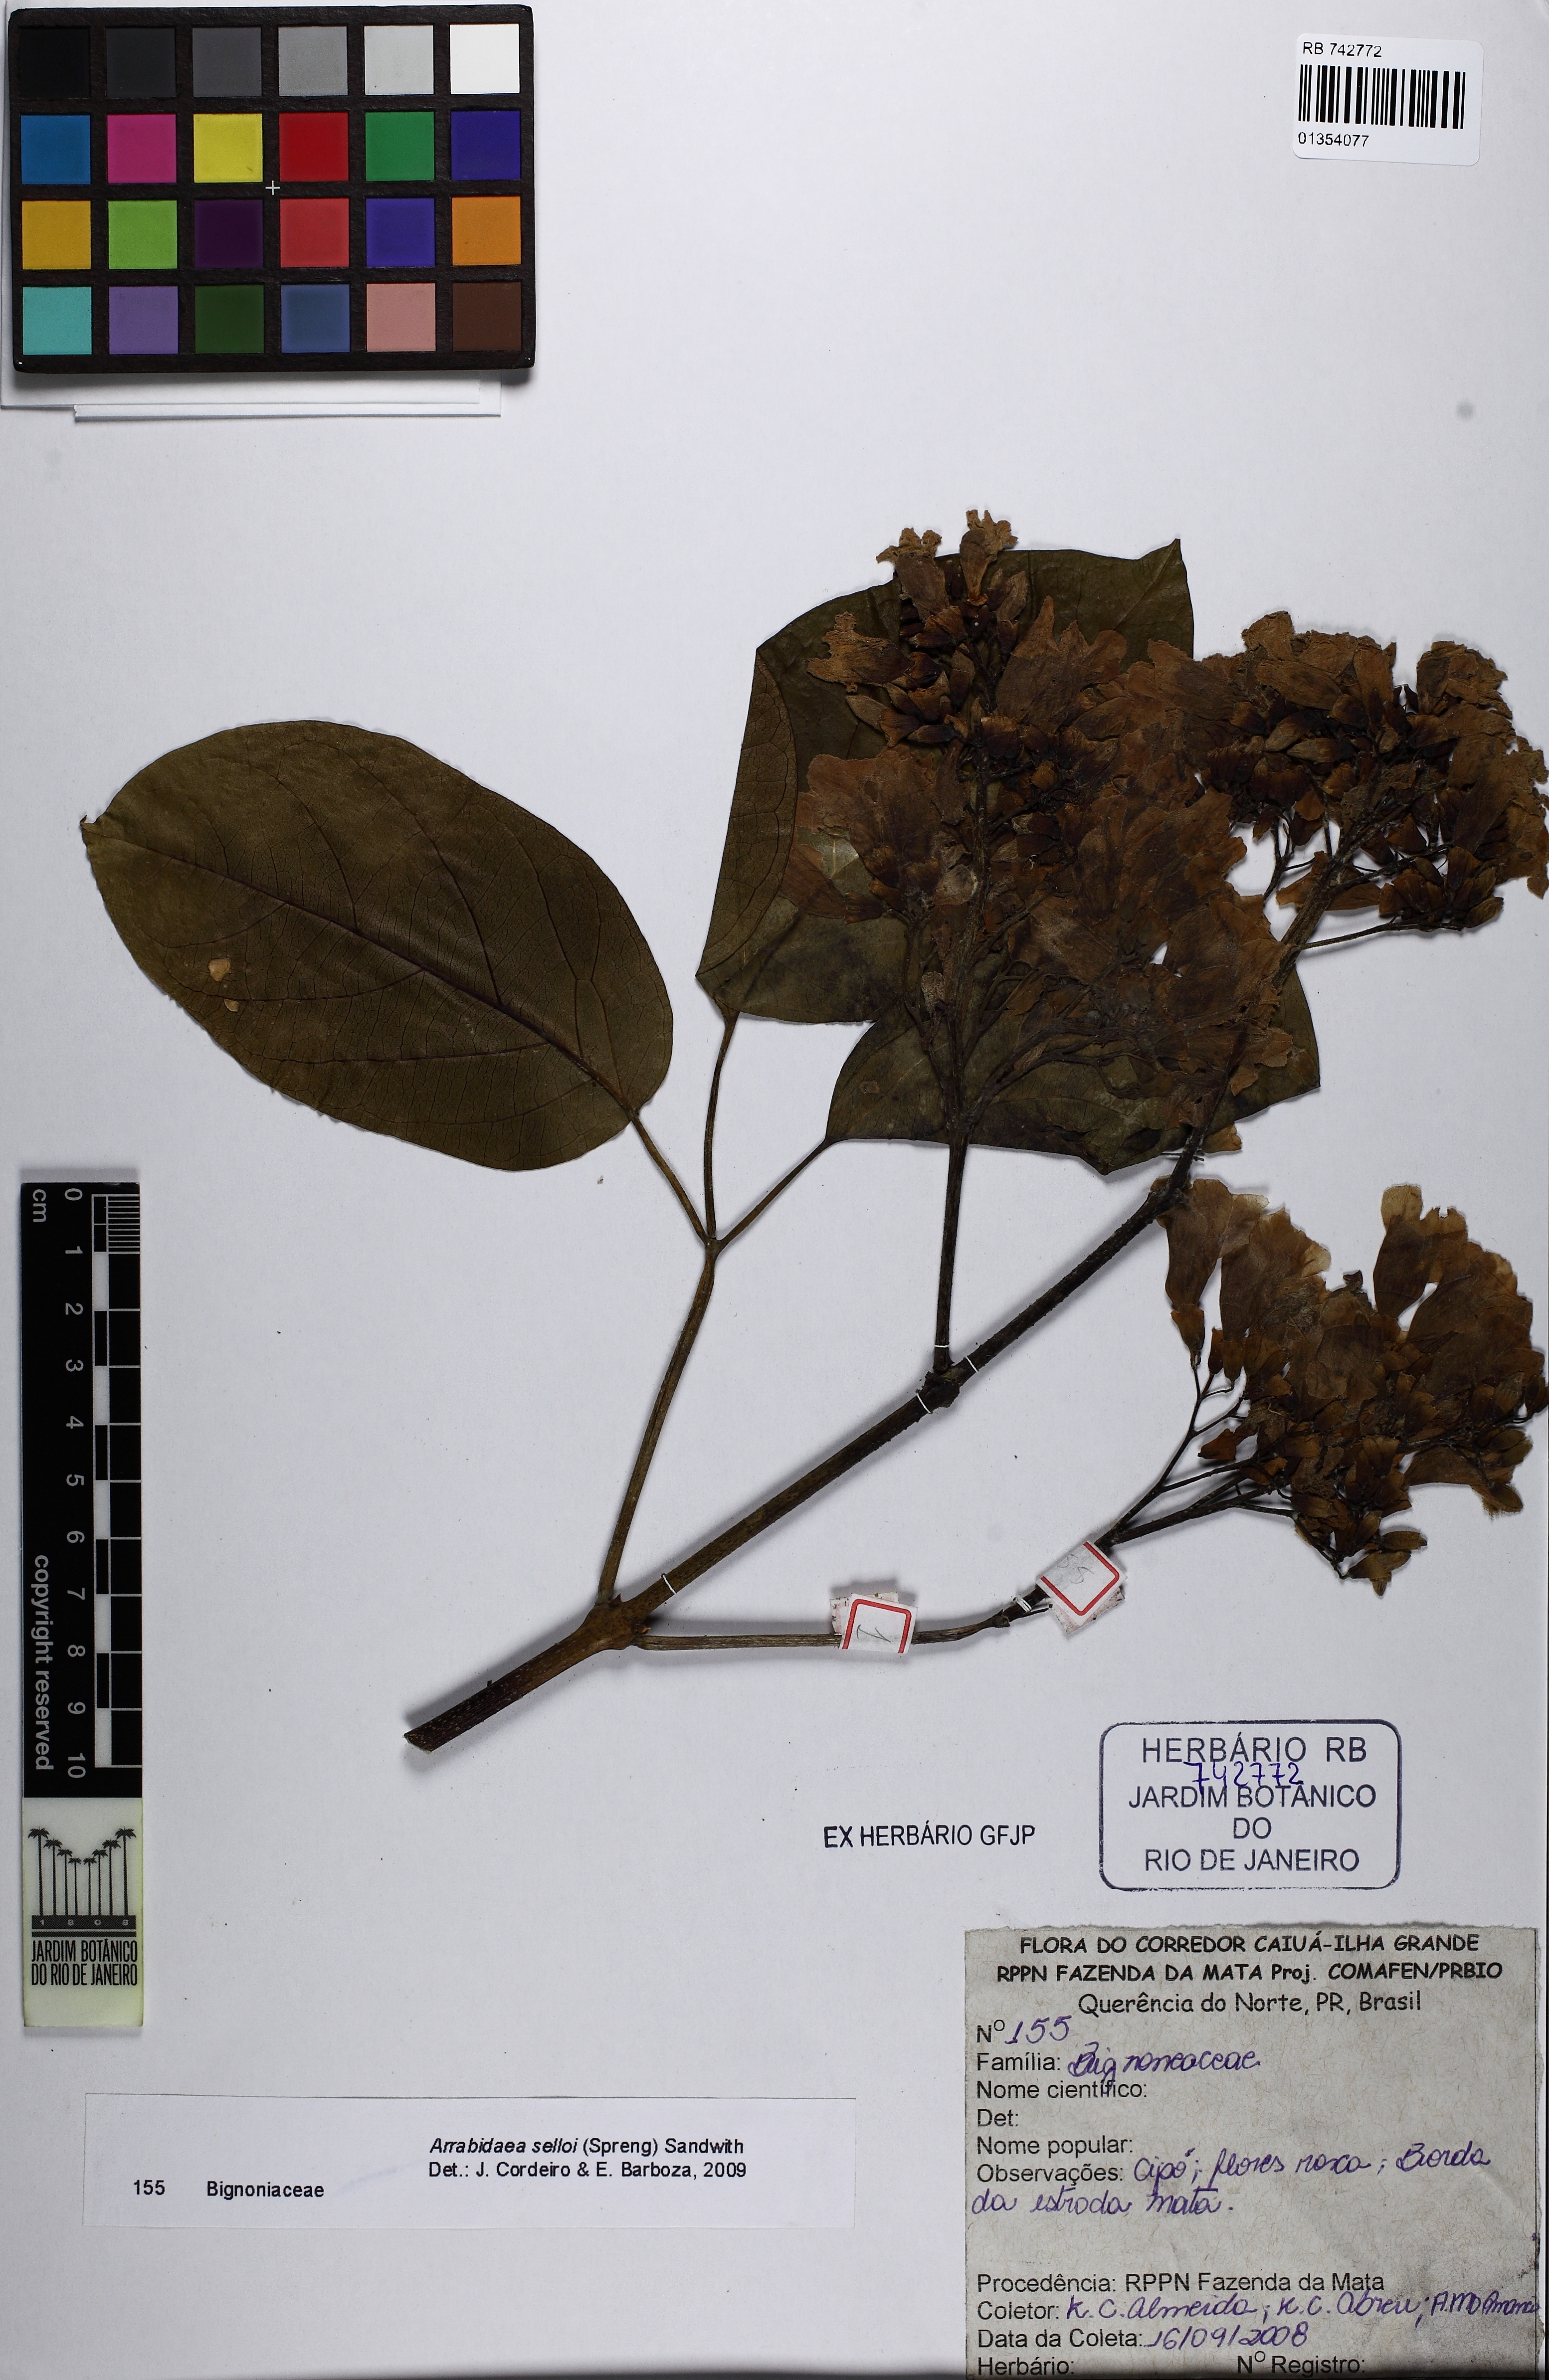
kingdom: Plantae
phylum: Tracheophyta
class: Magnoliopsida
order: Lamiales
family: Bignoniaceae
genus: Fridericia
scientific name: Fridericia mutabilis
